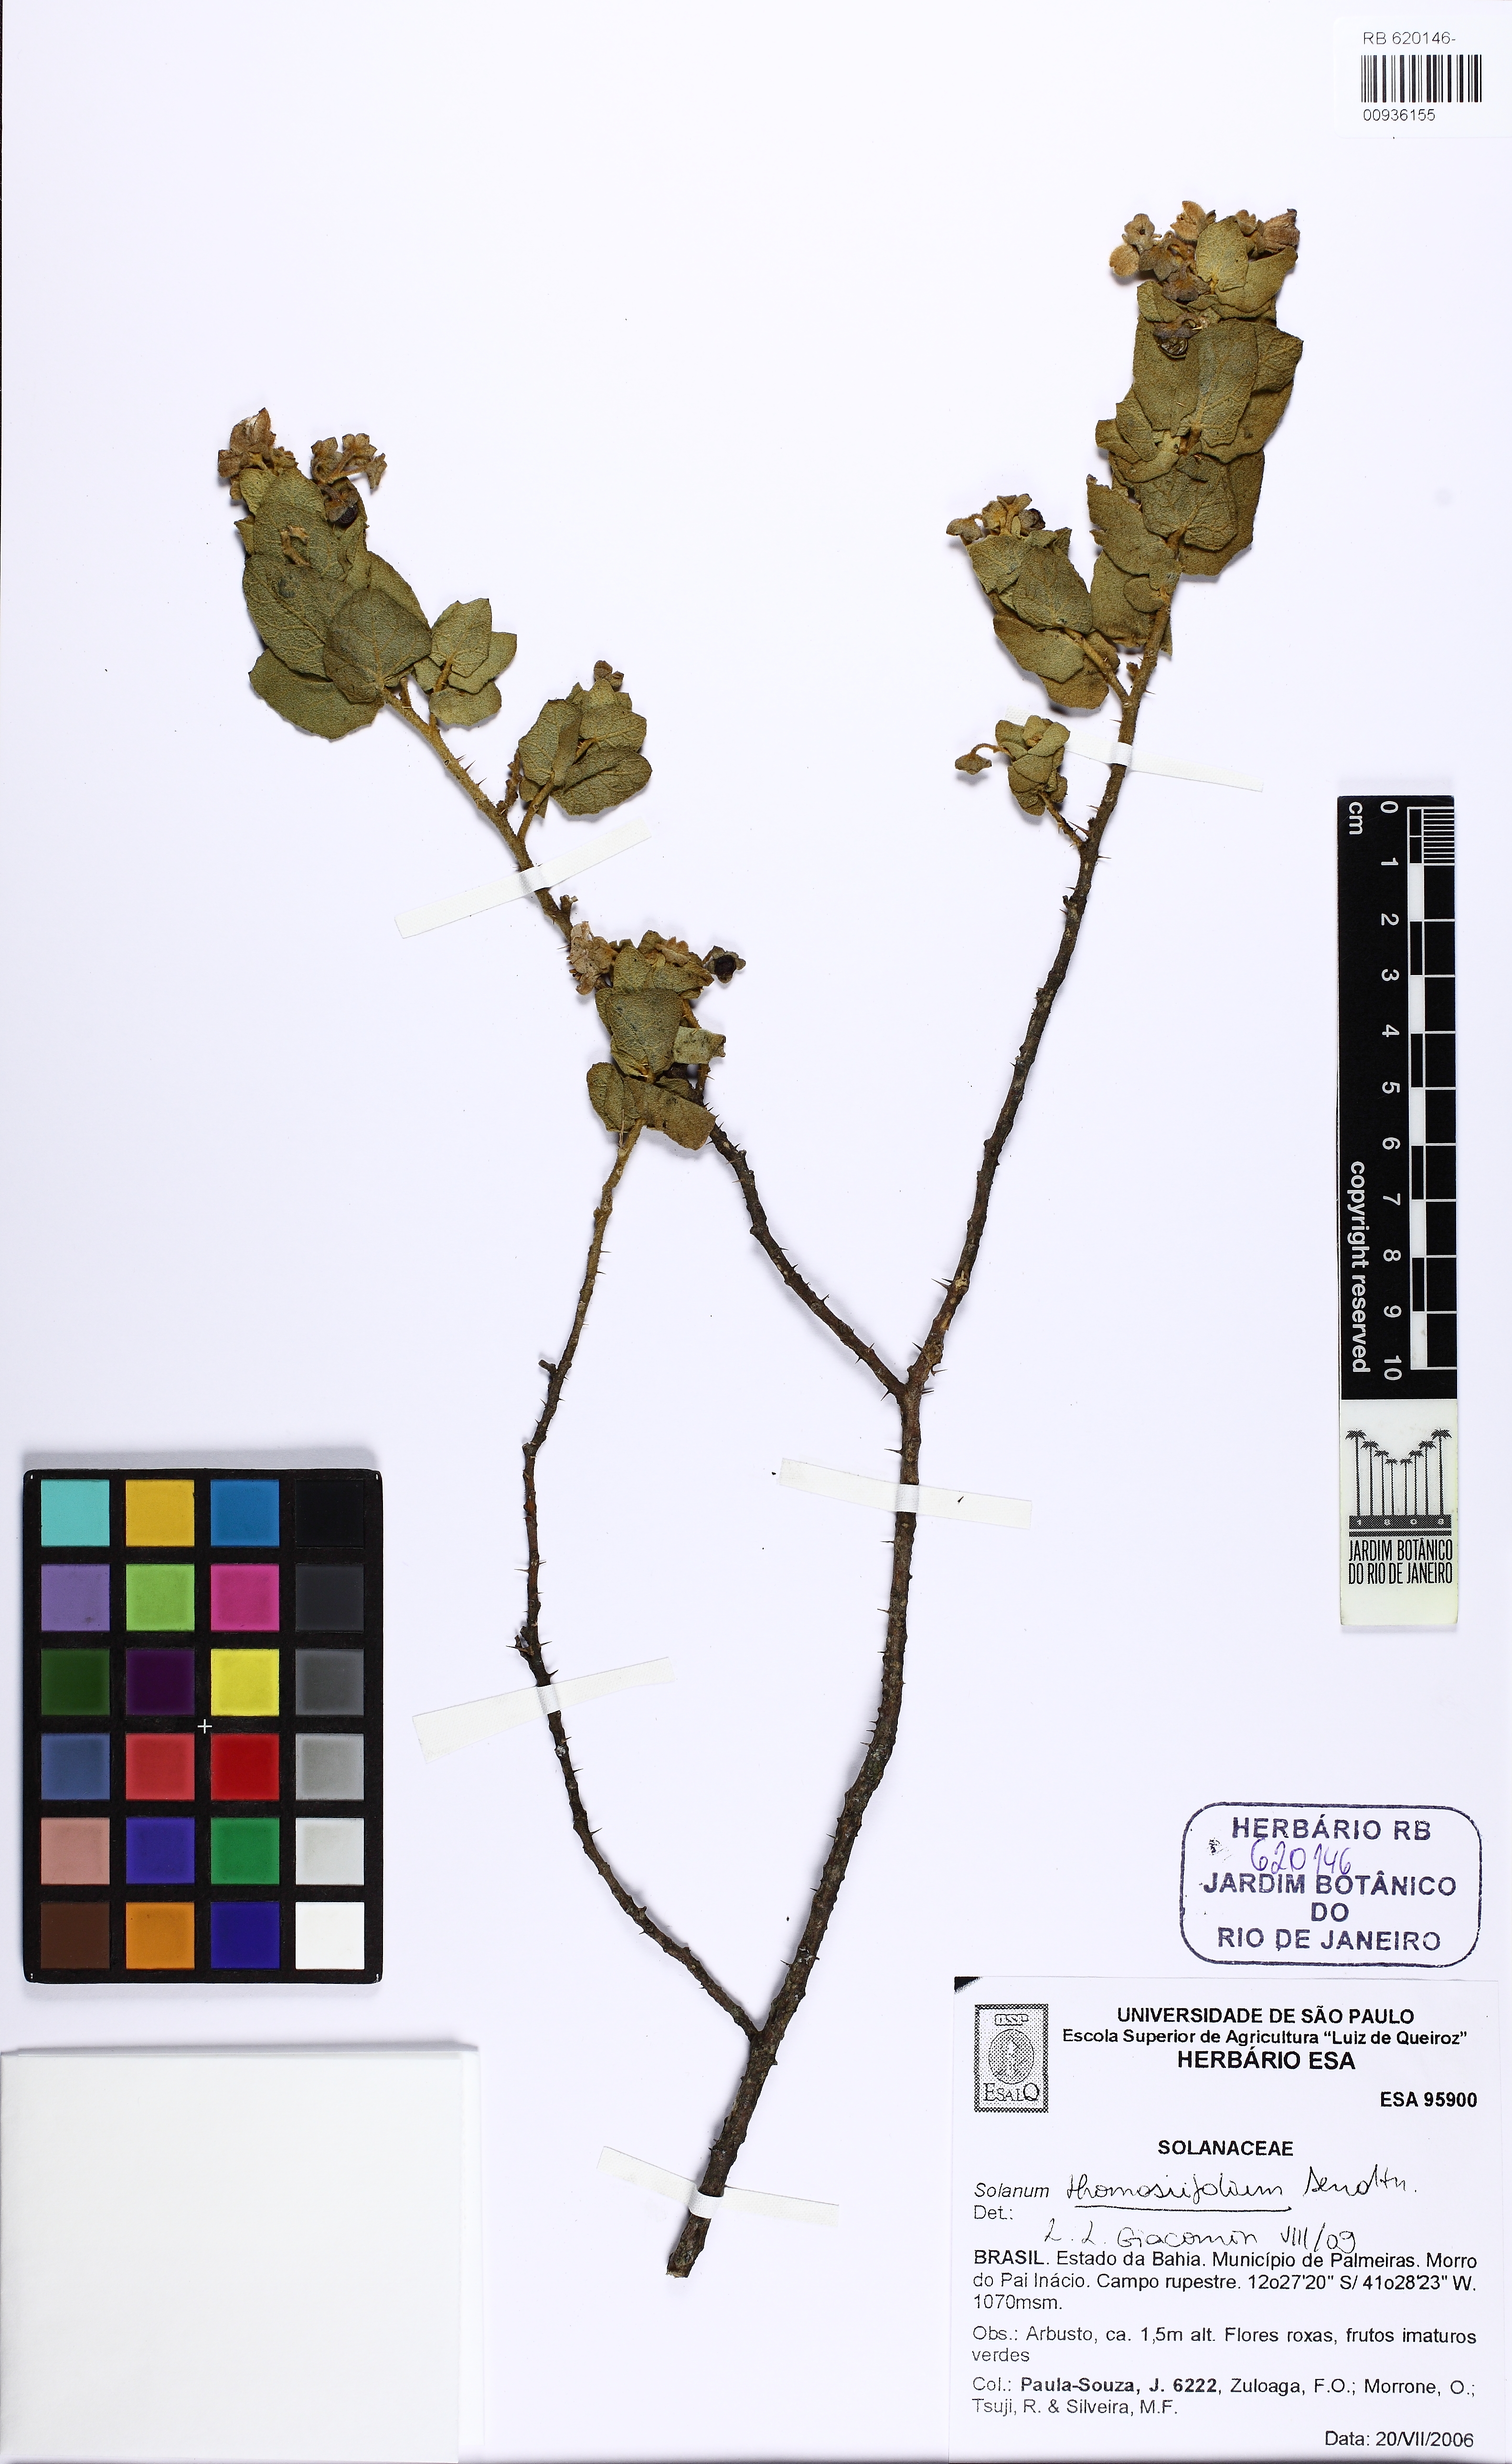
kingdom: Plantae
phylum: Tracheophyta
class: Magnoliopsida
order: Solanales
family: Solanaceae
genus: Solanum
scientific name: Solanum thomasiifolium
